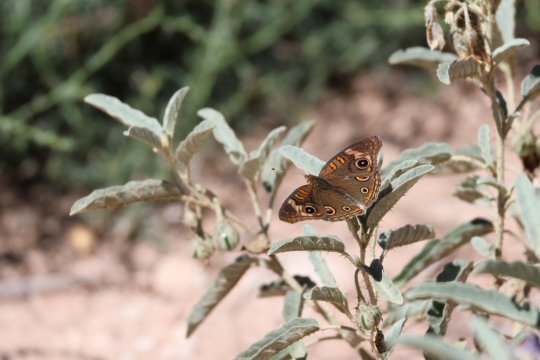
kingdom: Animalia
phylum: Arthropoda
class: Insecta
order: Lepidoptera
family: Nymphalidae
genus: Junonia
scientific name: Junonia coenia
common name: Common Buckeye
